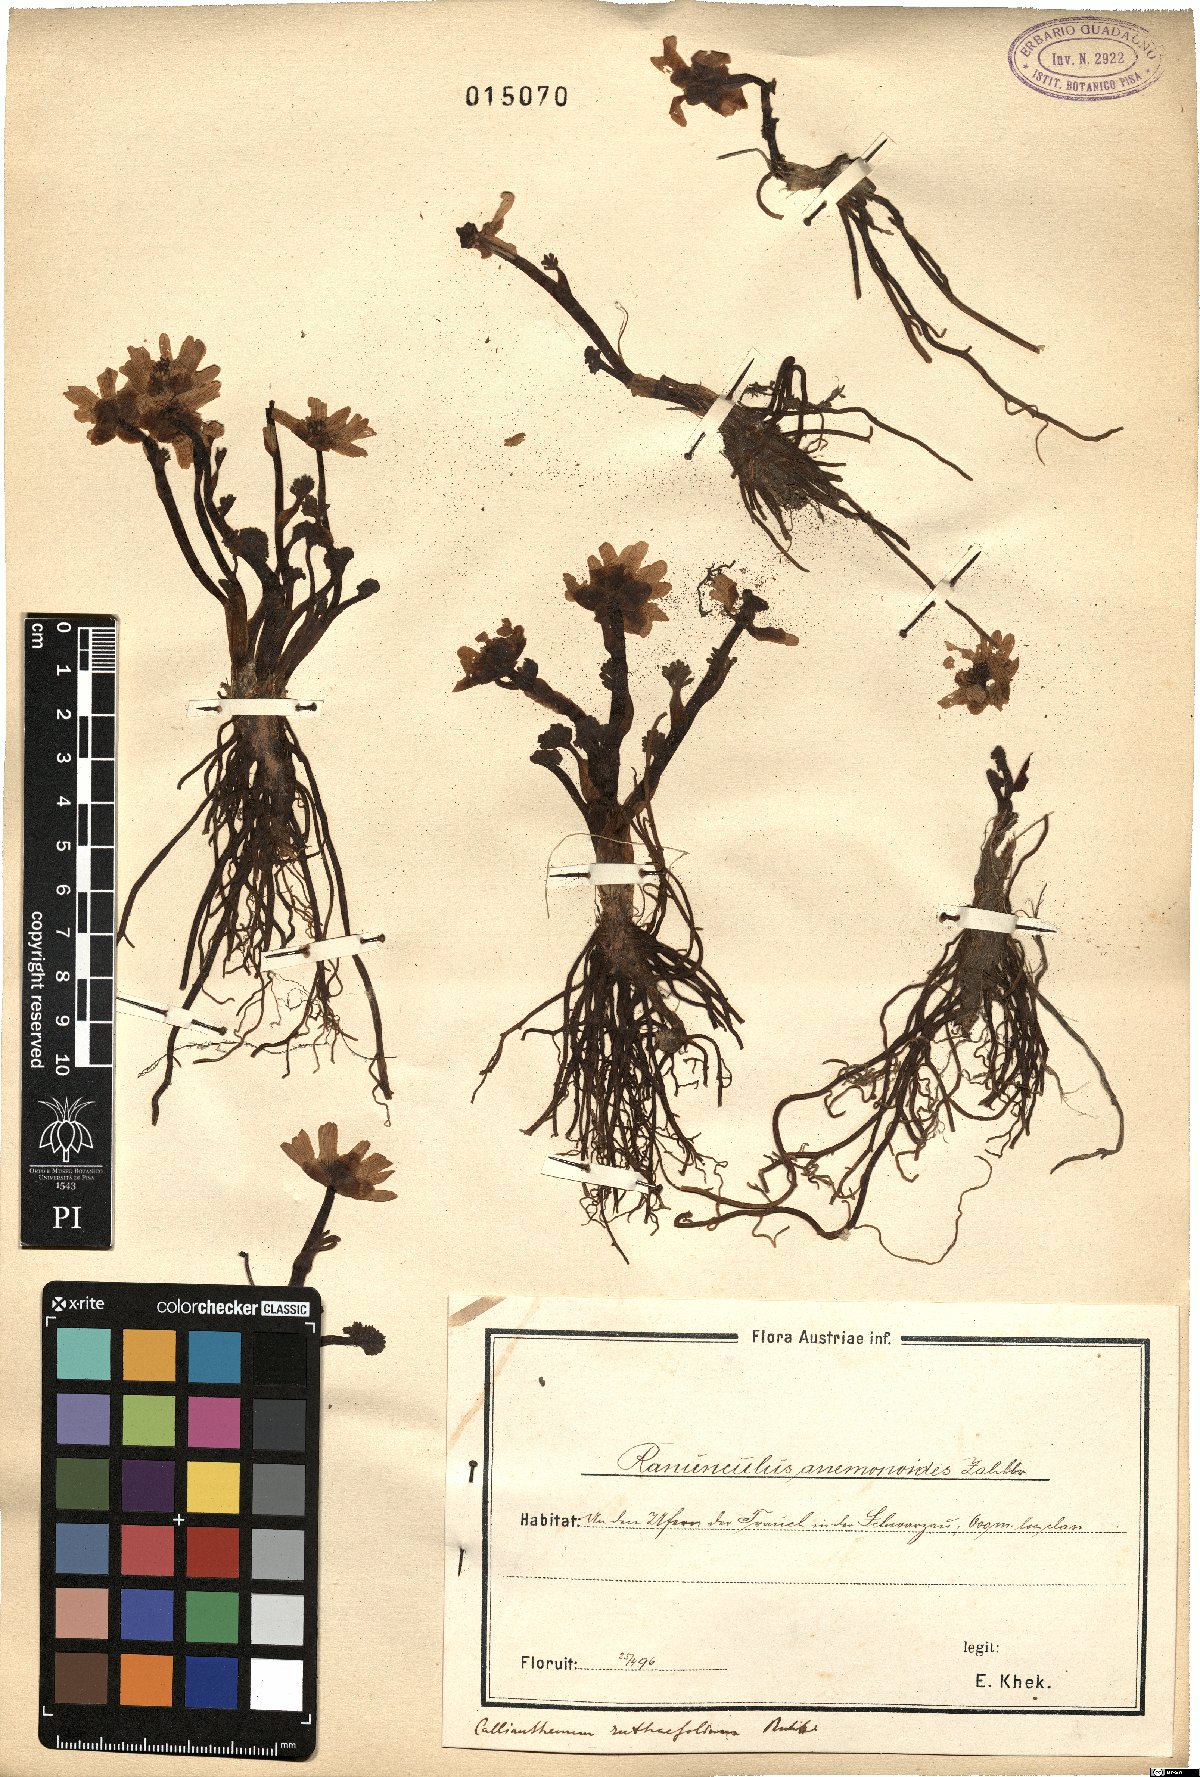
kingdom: Plantae
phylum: Tracheophyta
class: Magnoliopsida
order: Ranunculales
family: Ranunculaceae
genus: Callianthemum
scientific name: Callianthemum anemonoides
